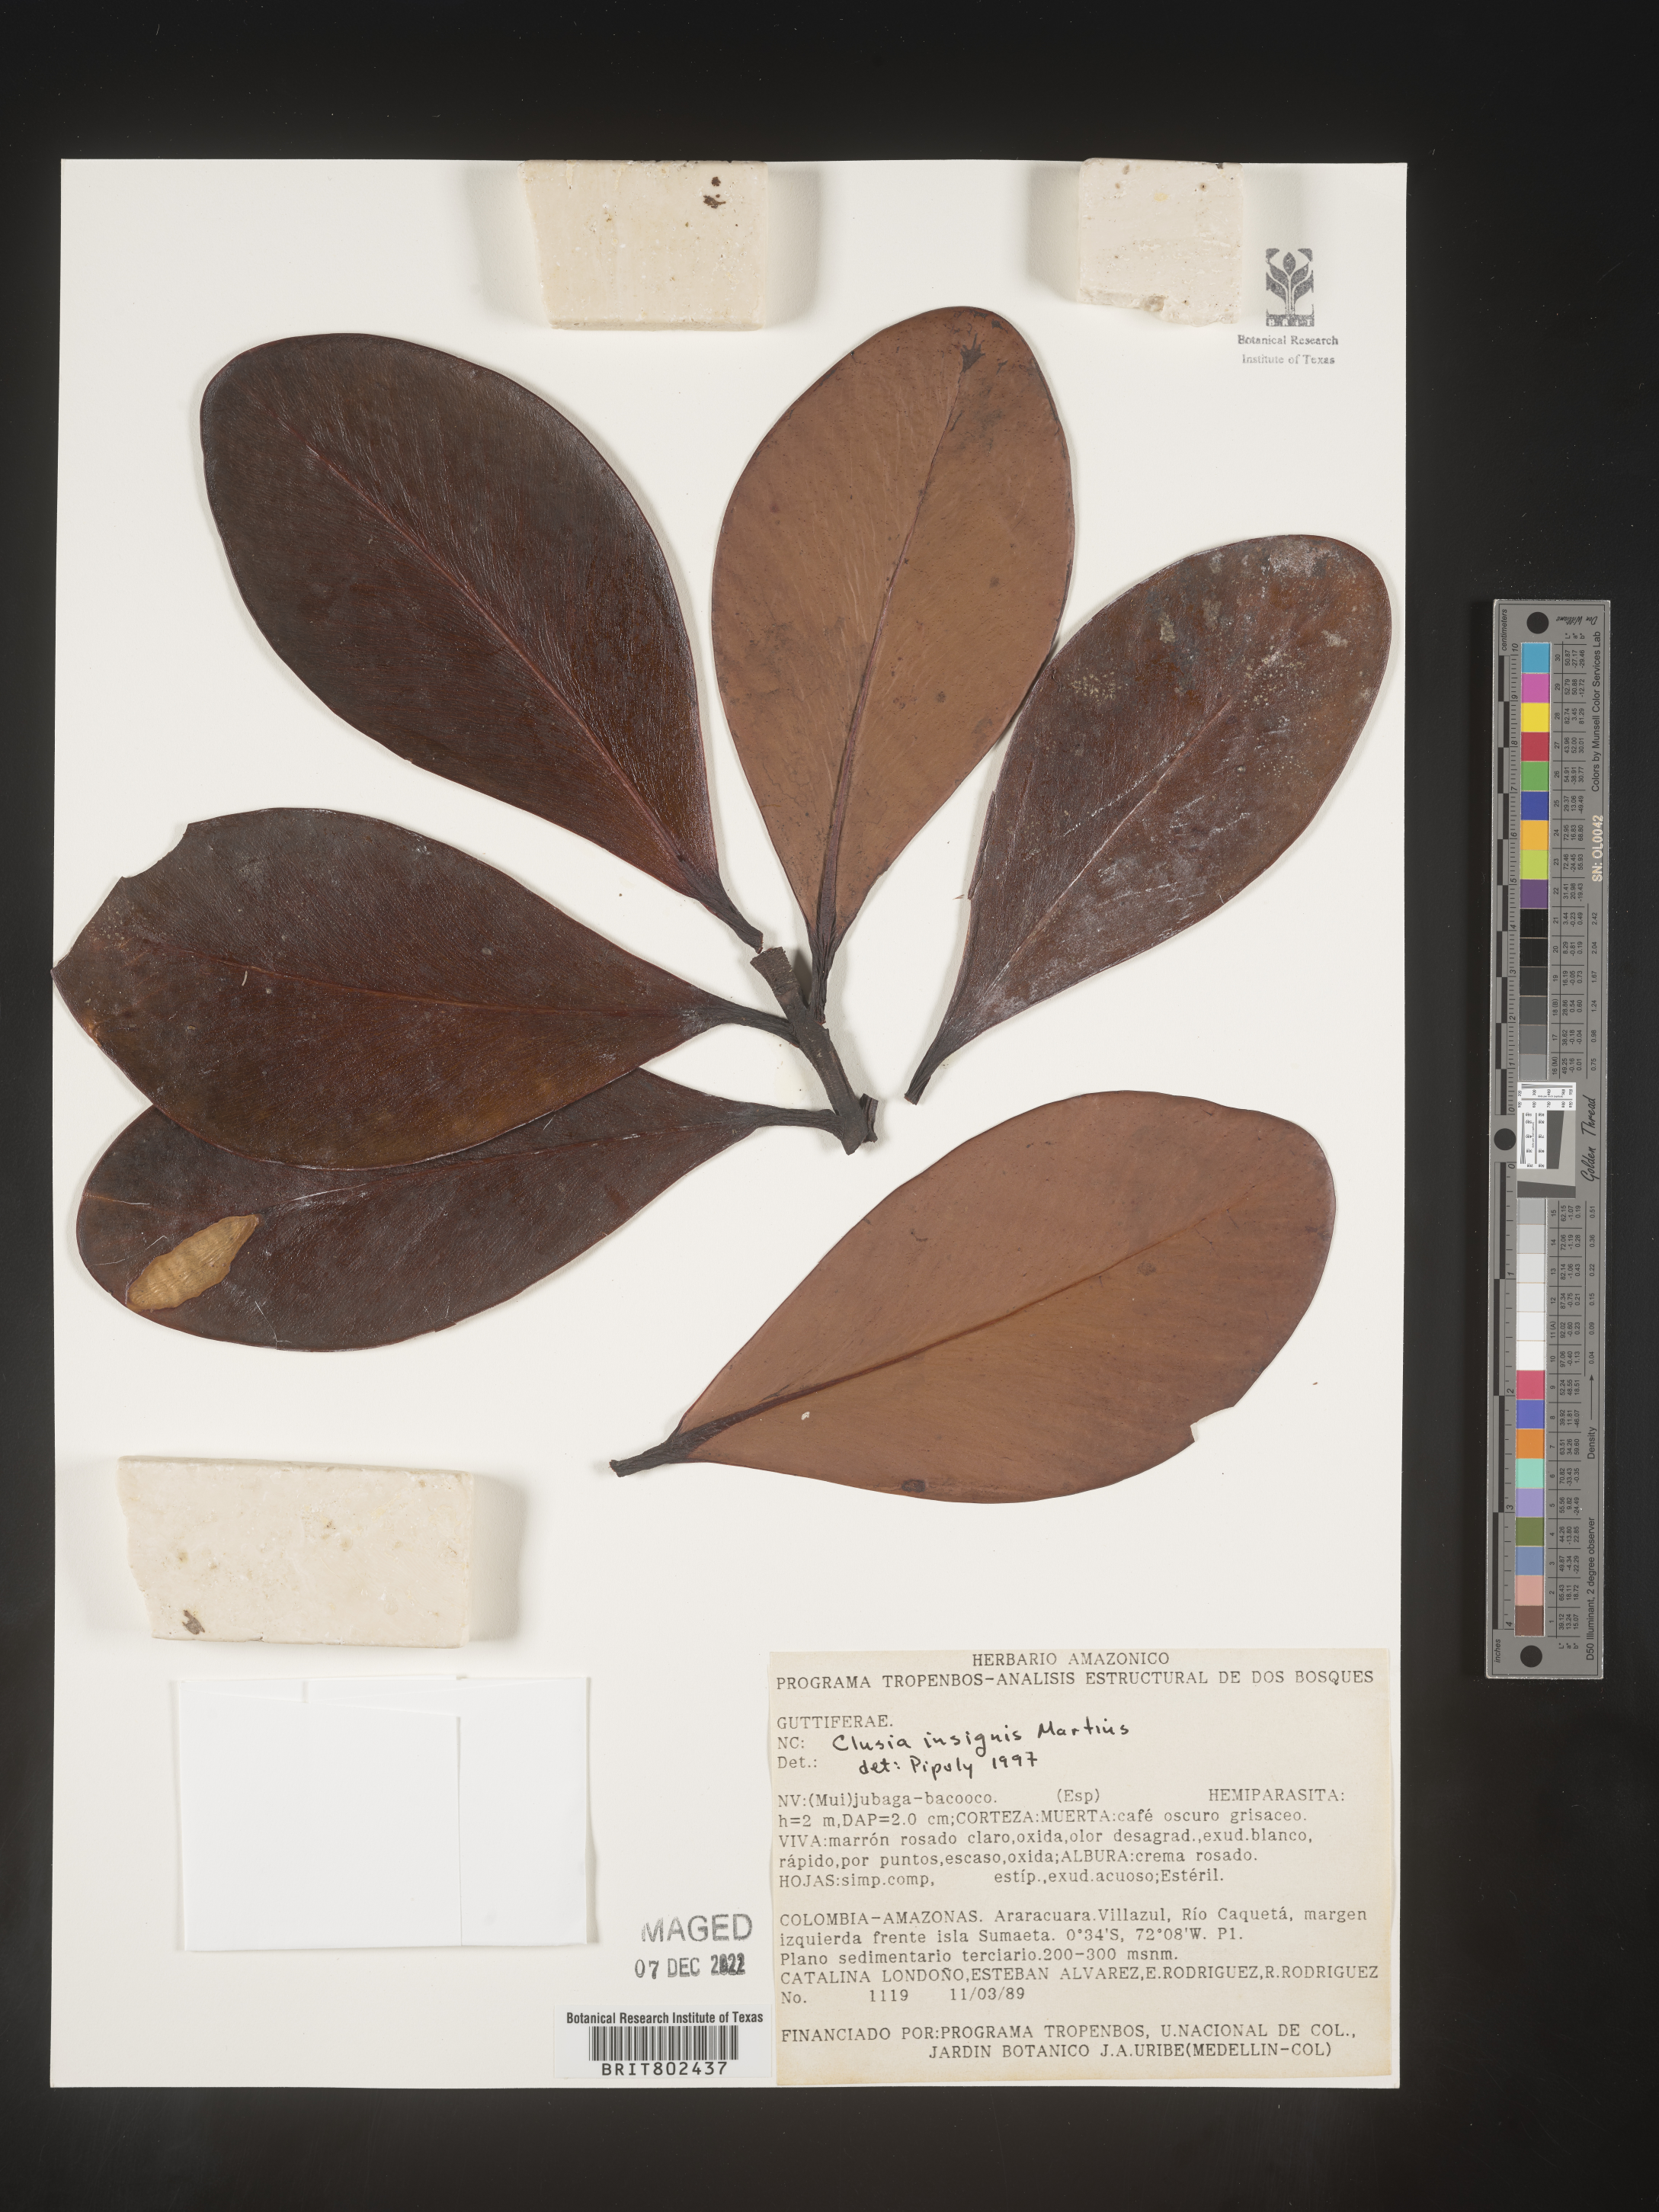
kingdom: Plantae
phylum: Tracheophyta
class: Magnoliopsida
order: Malpighiales
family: Clusiaceae
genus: Clusia
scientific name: Clusia insignis
